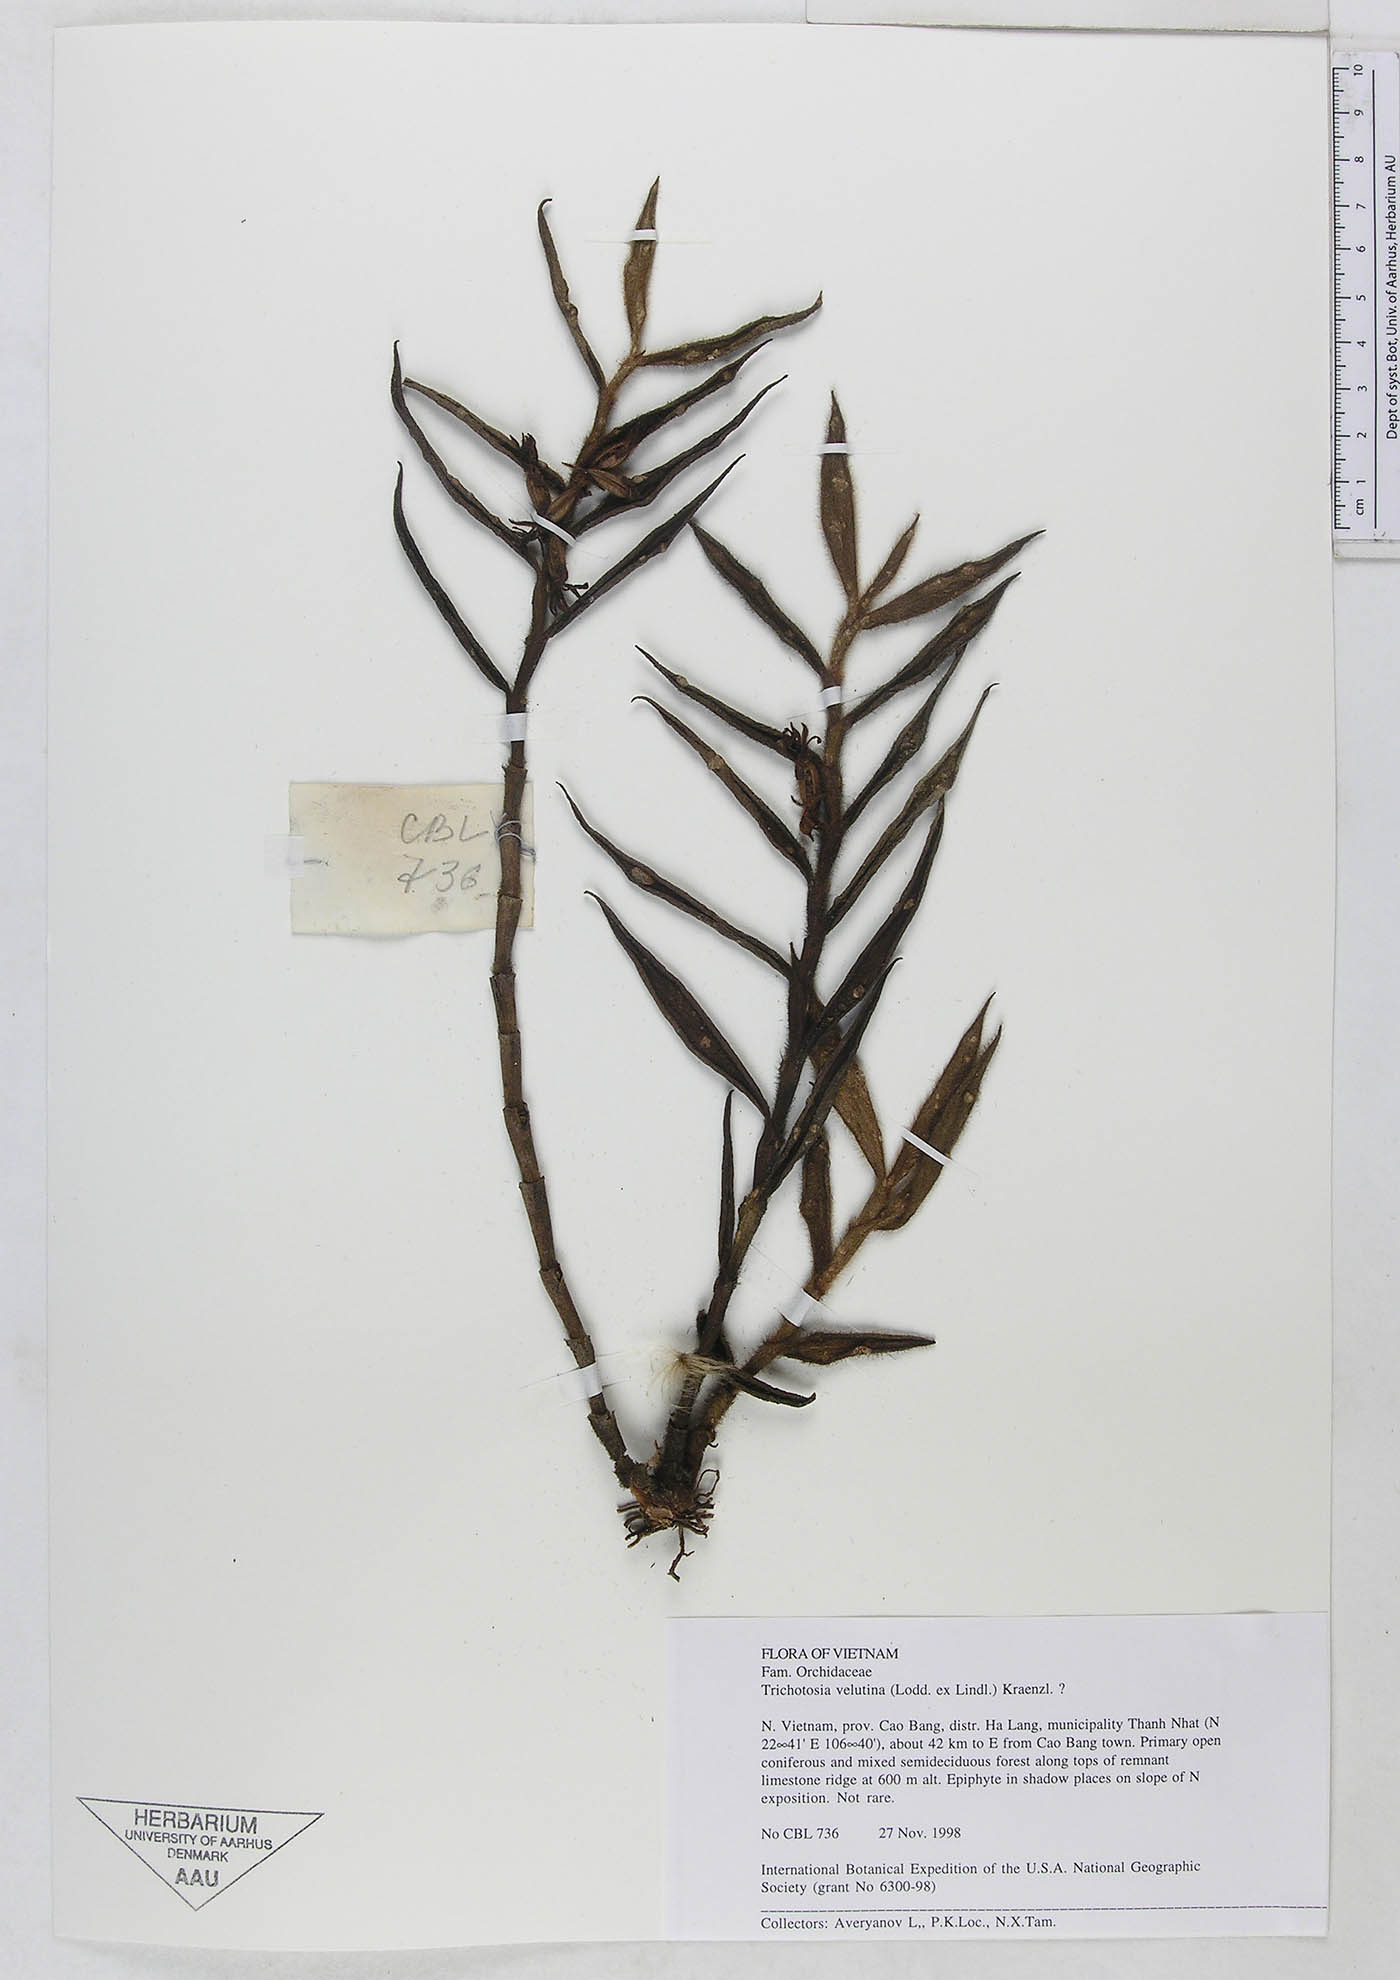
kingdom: Plantae
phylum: Tracheophyta
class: Liliopsida
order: Asparagales
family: Orchidaceae
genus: Trichotosia
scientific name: Trichotosia velutina
